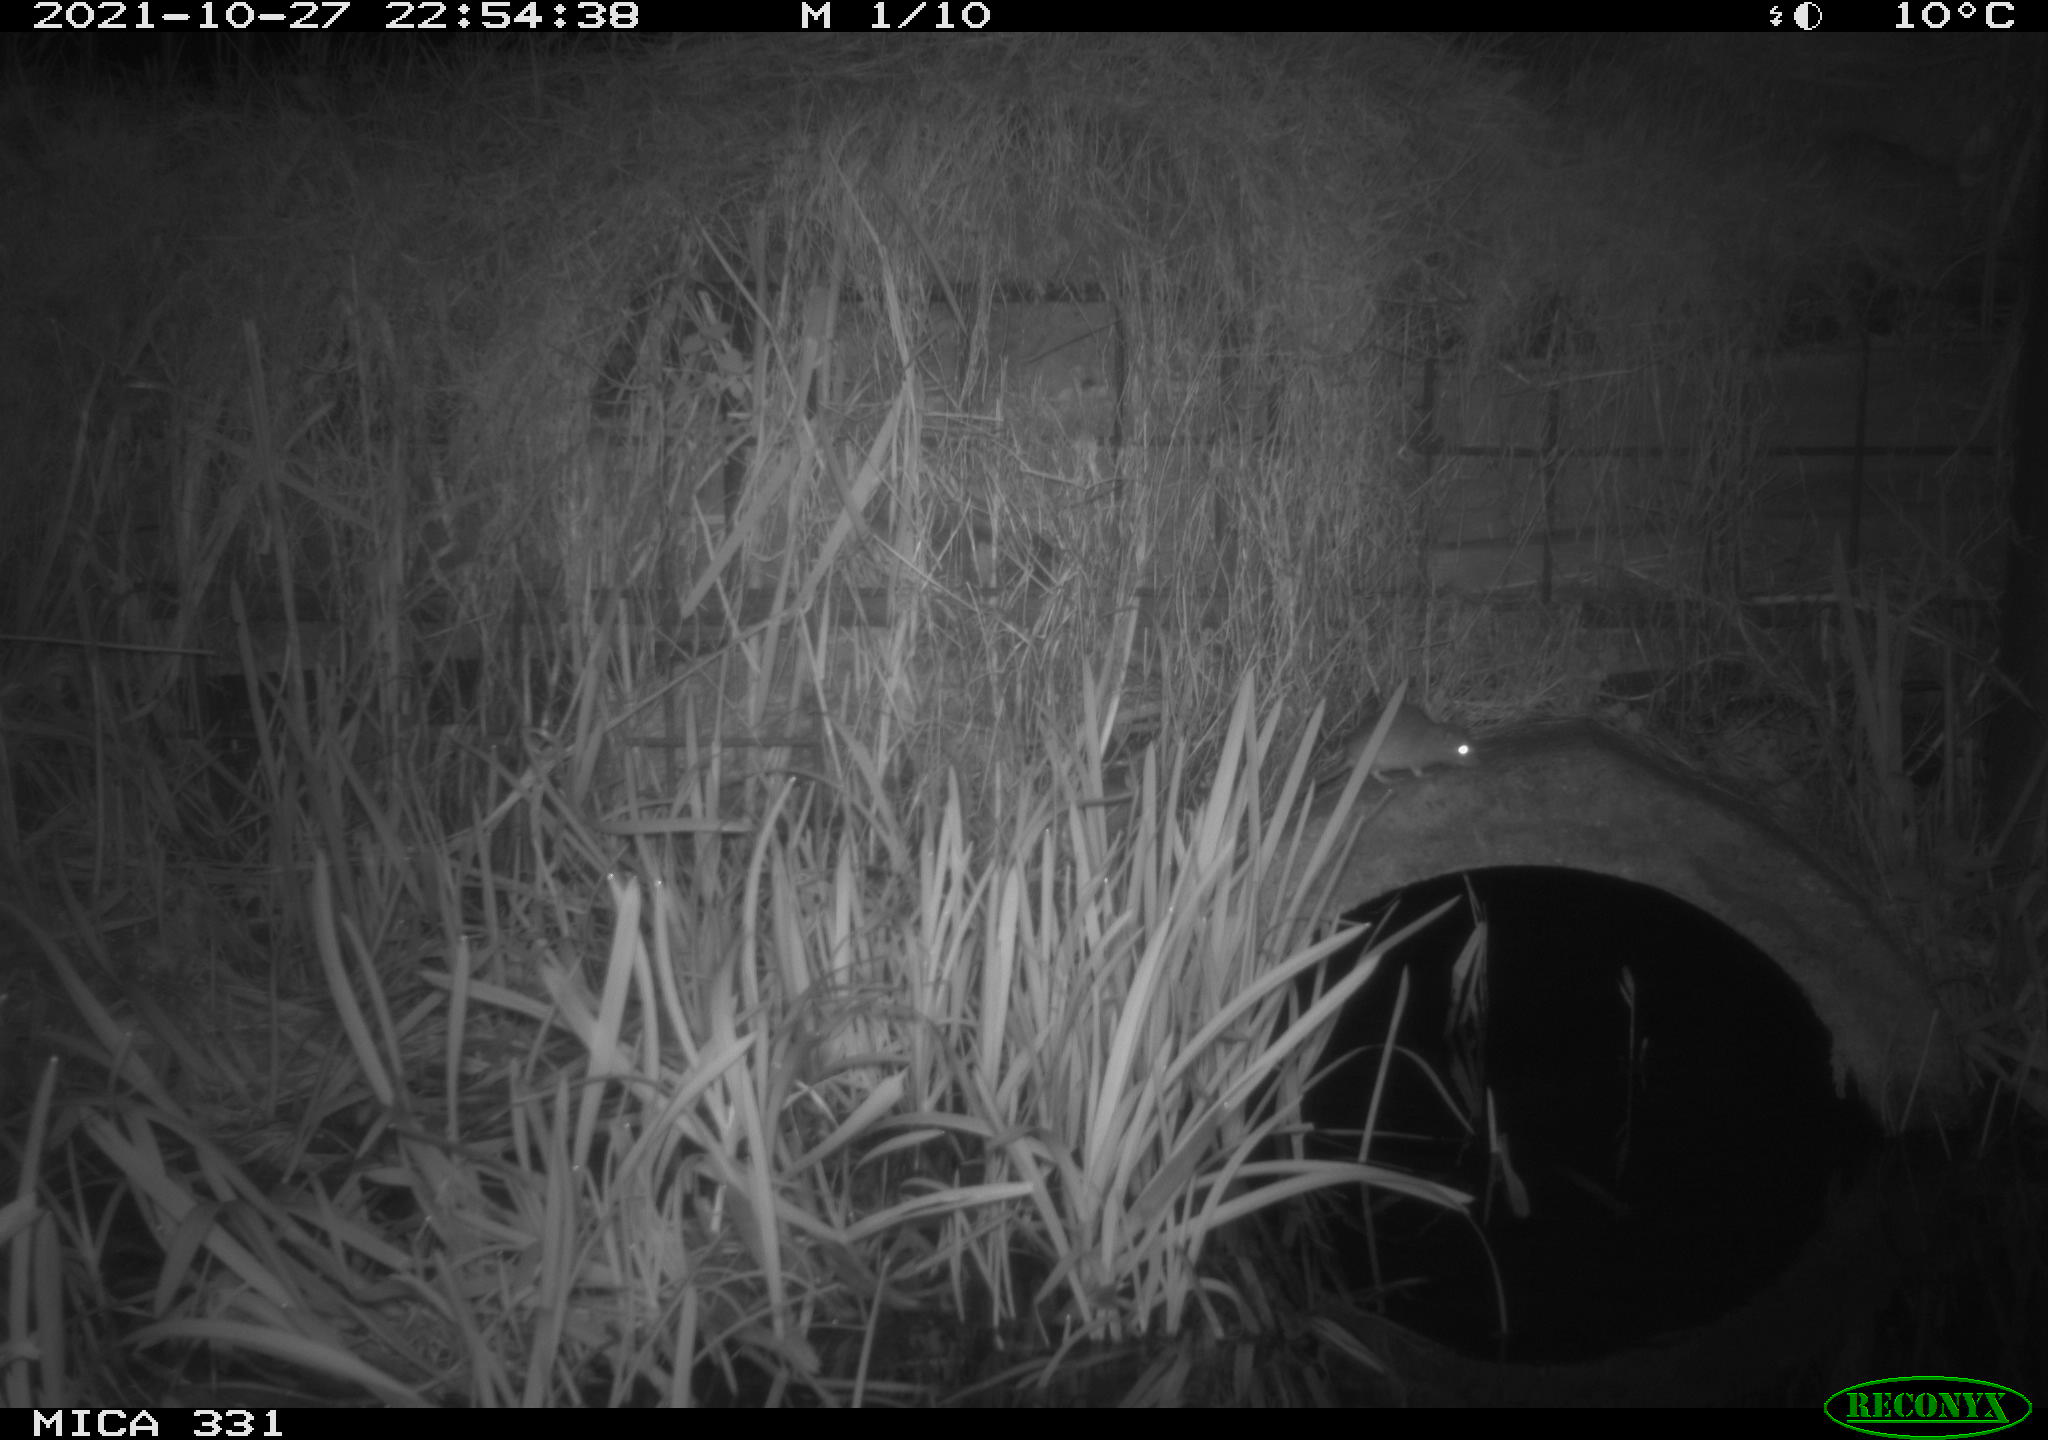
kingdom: Animalia
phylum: Chordata
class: Mammalia
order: Rodentia
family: Muridae
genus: Rattus
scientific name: Rattus norvegicus
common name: Brown rat
